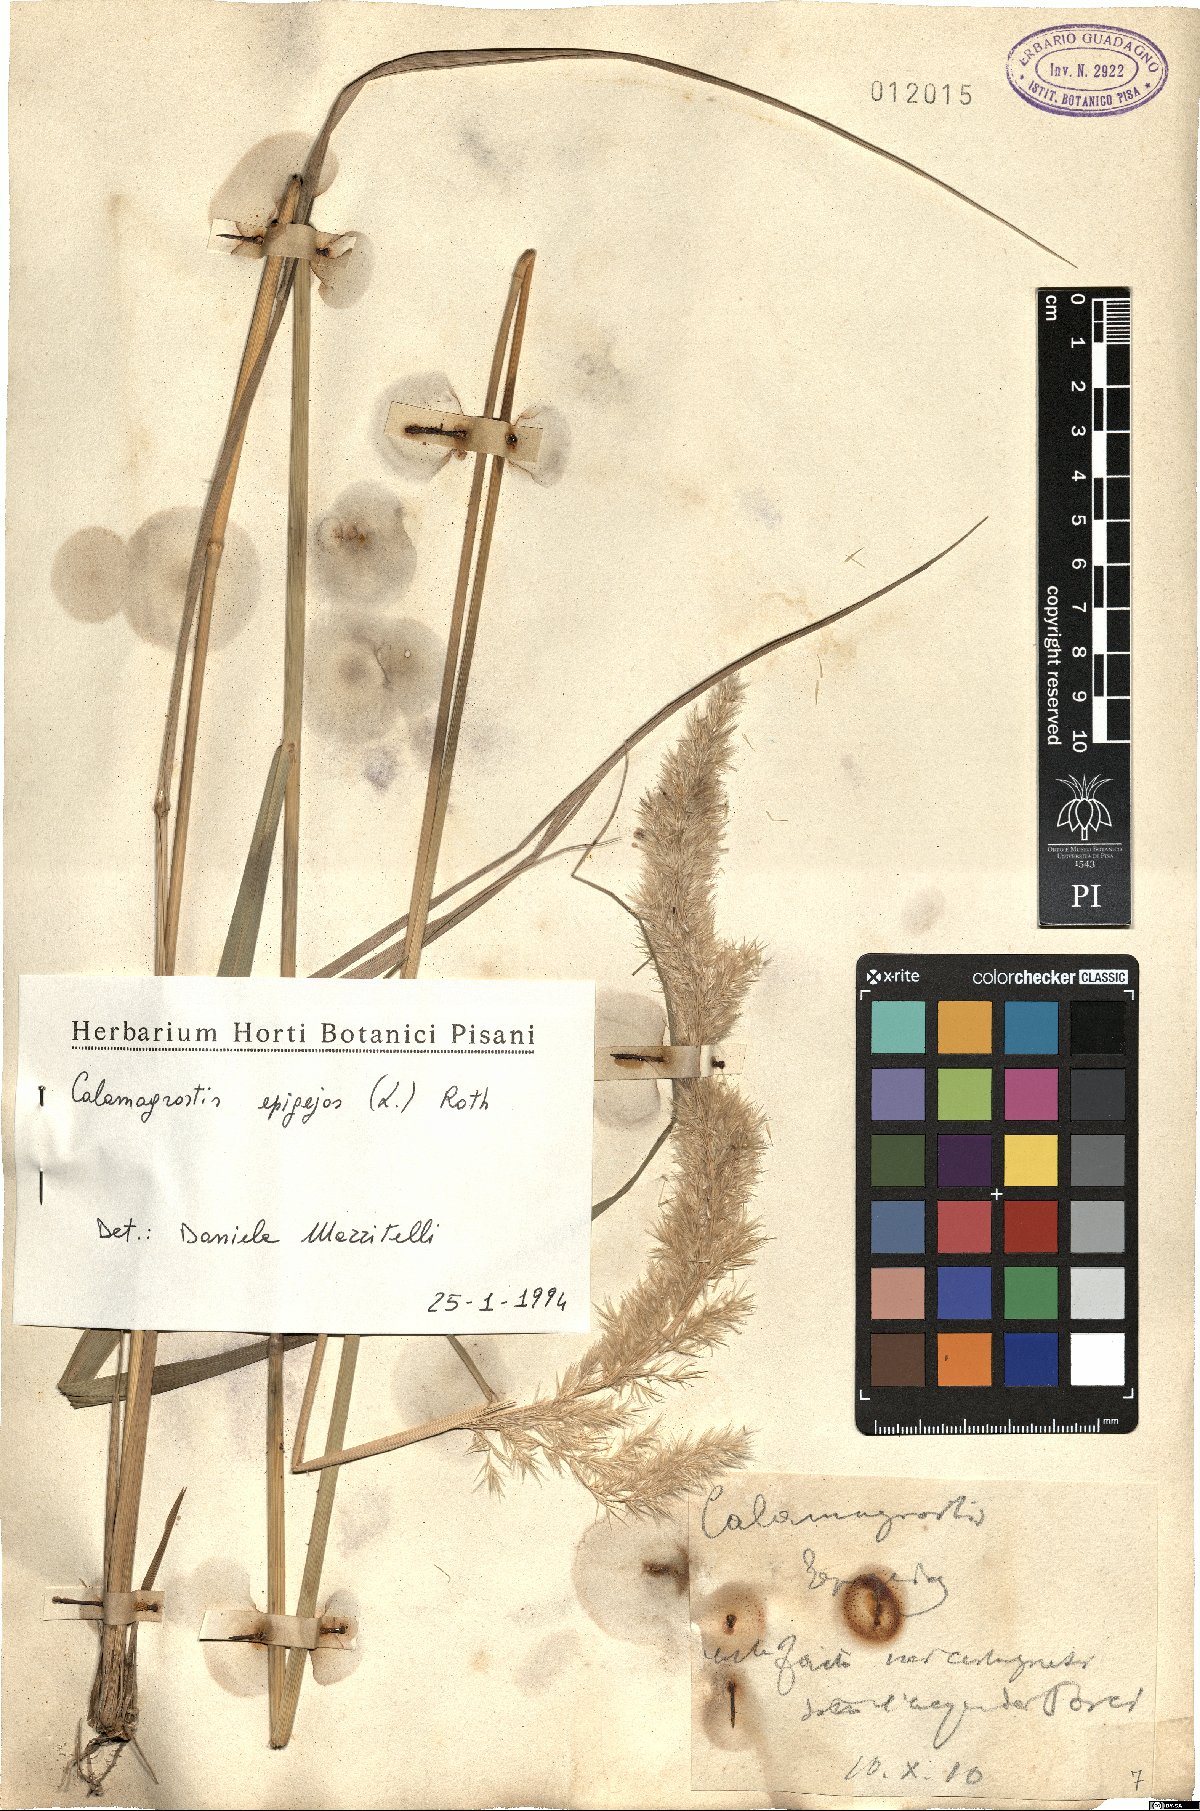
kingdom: Plantae
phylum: Tracheophyta
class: Liliopsida
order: Poales
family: Poaceae
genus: Calamagrostis
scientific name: Calamagrostis epigejos
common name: Wood small-reed
